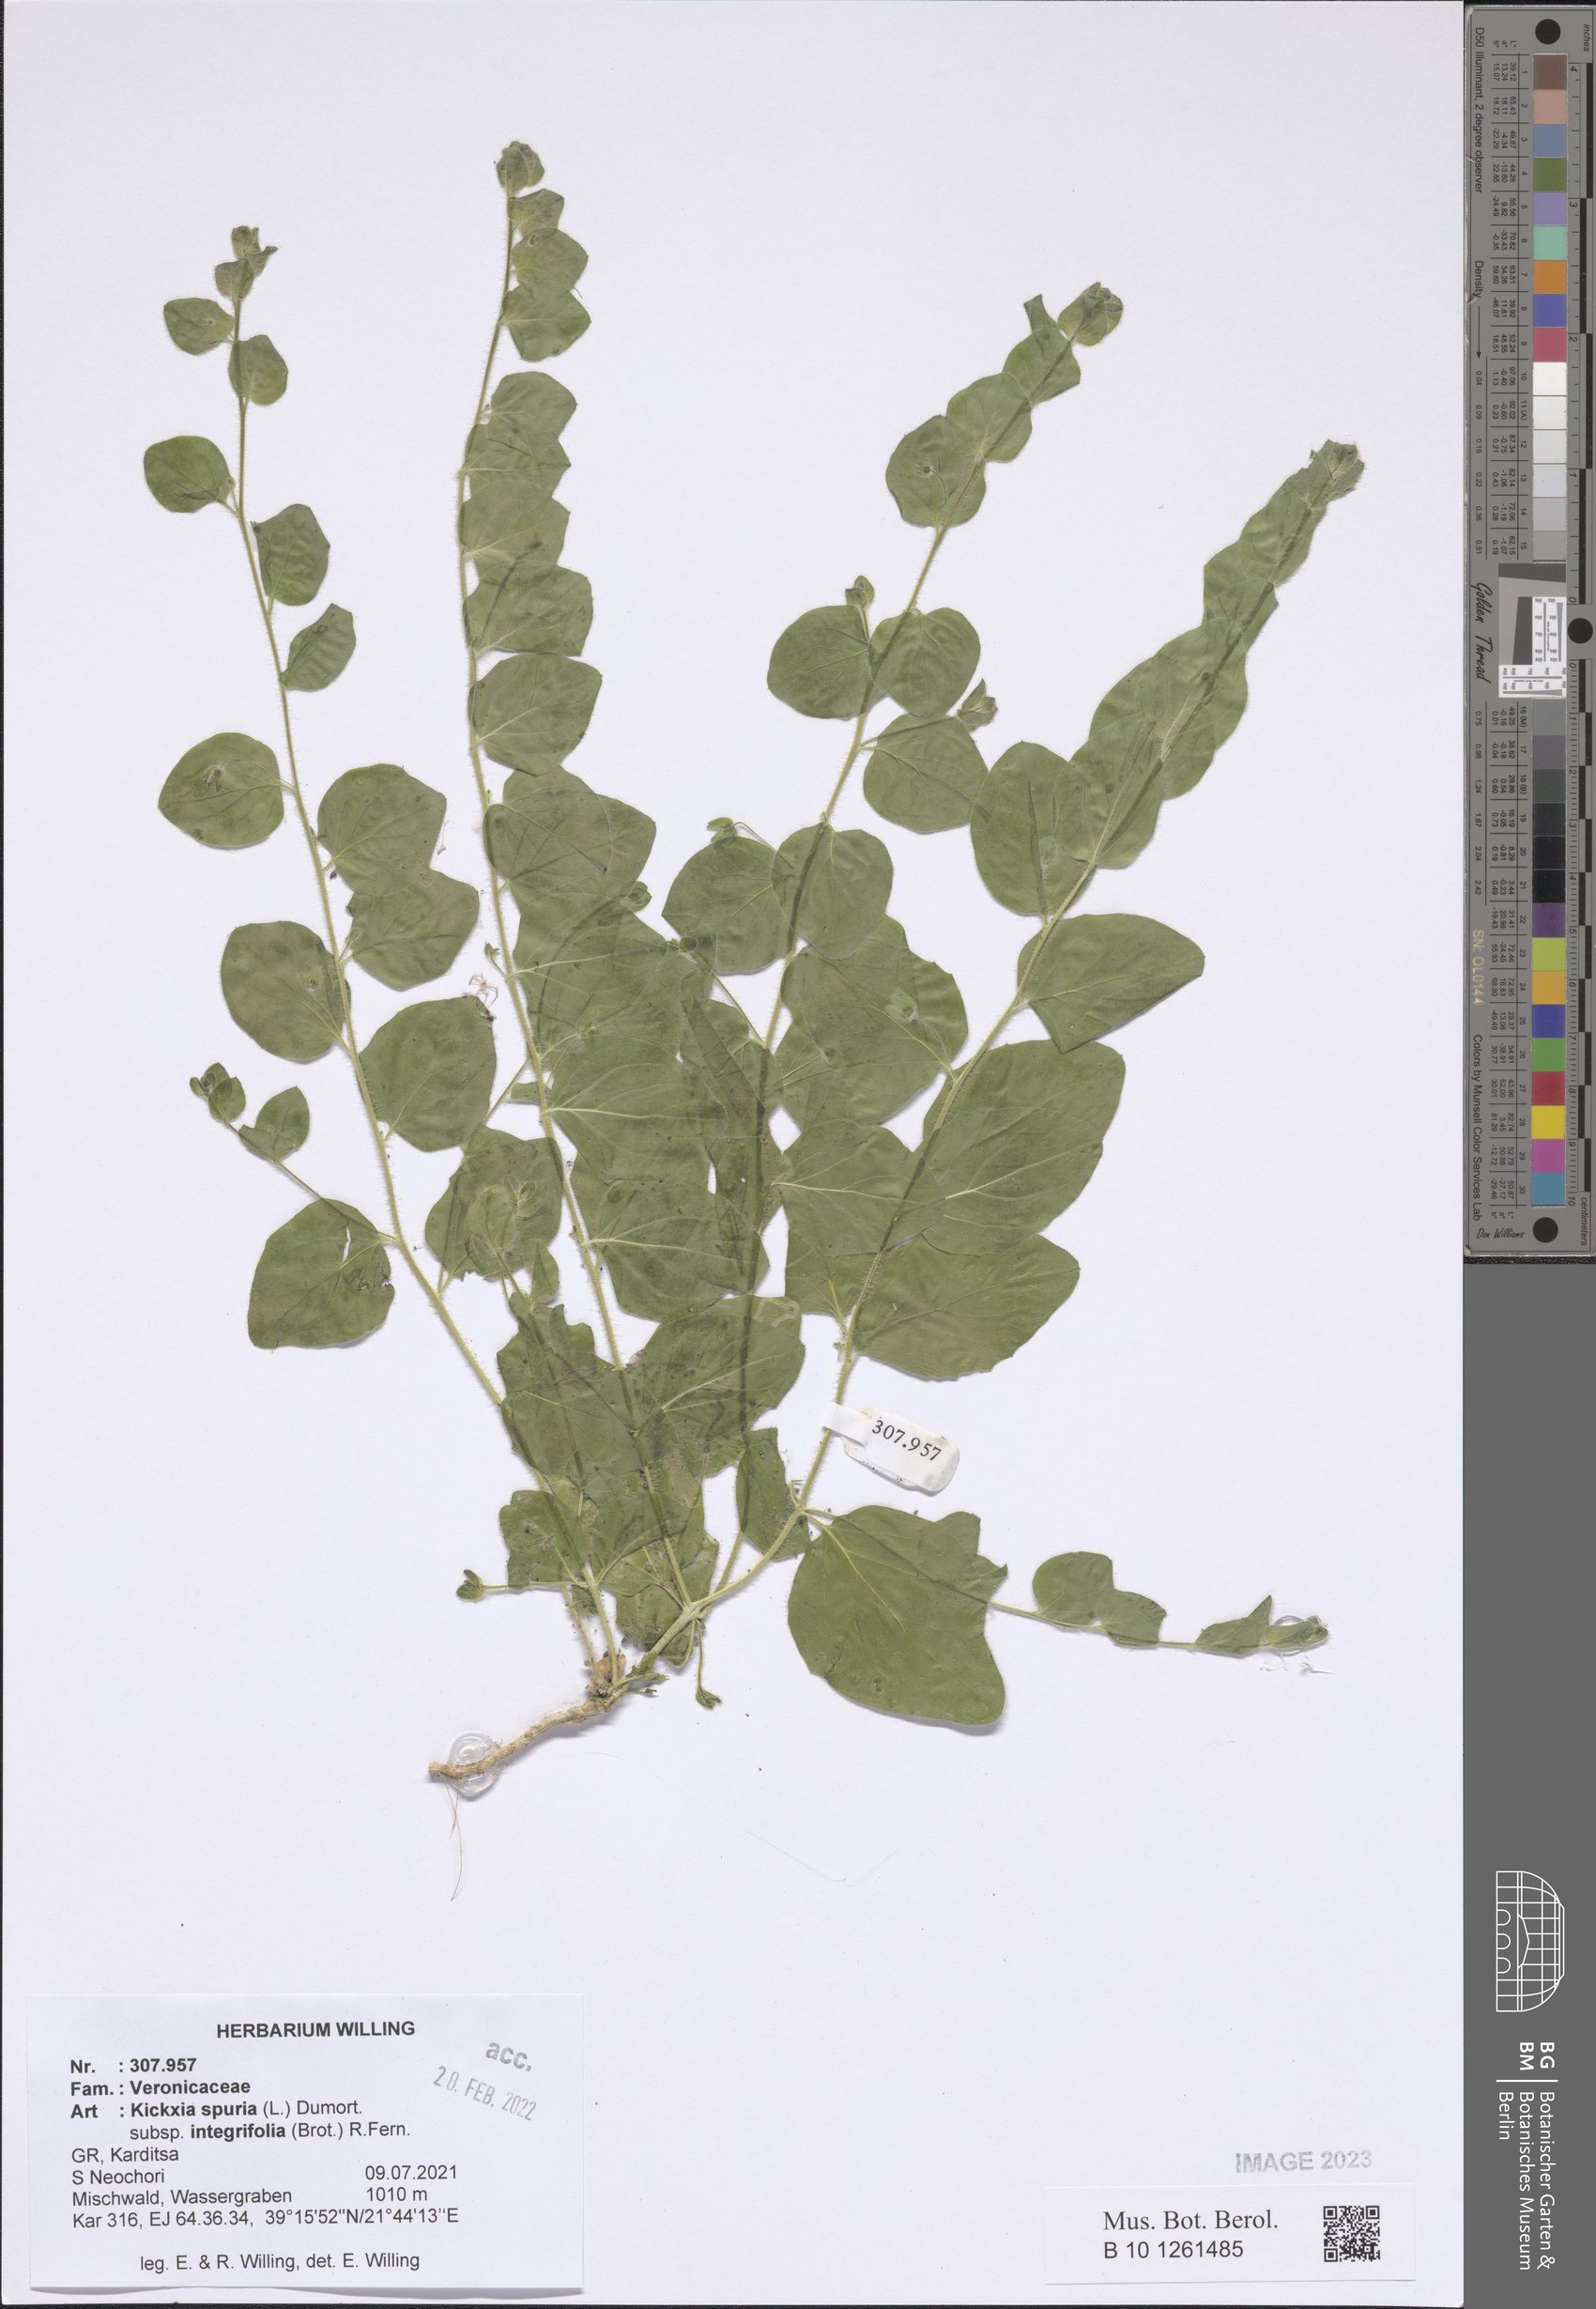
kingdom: Plantae
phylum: Tracheophyta
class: Magnoliopsida
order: Lamiales
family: Plantaginaceae
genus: Kickxia
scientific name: Kickxia spuria
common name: Round-leaved fluellen
